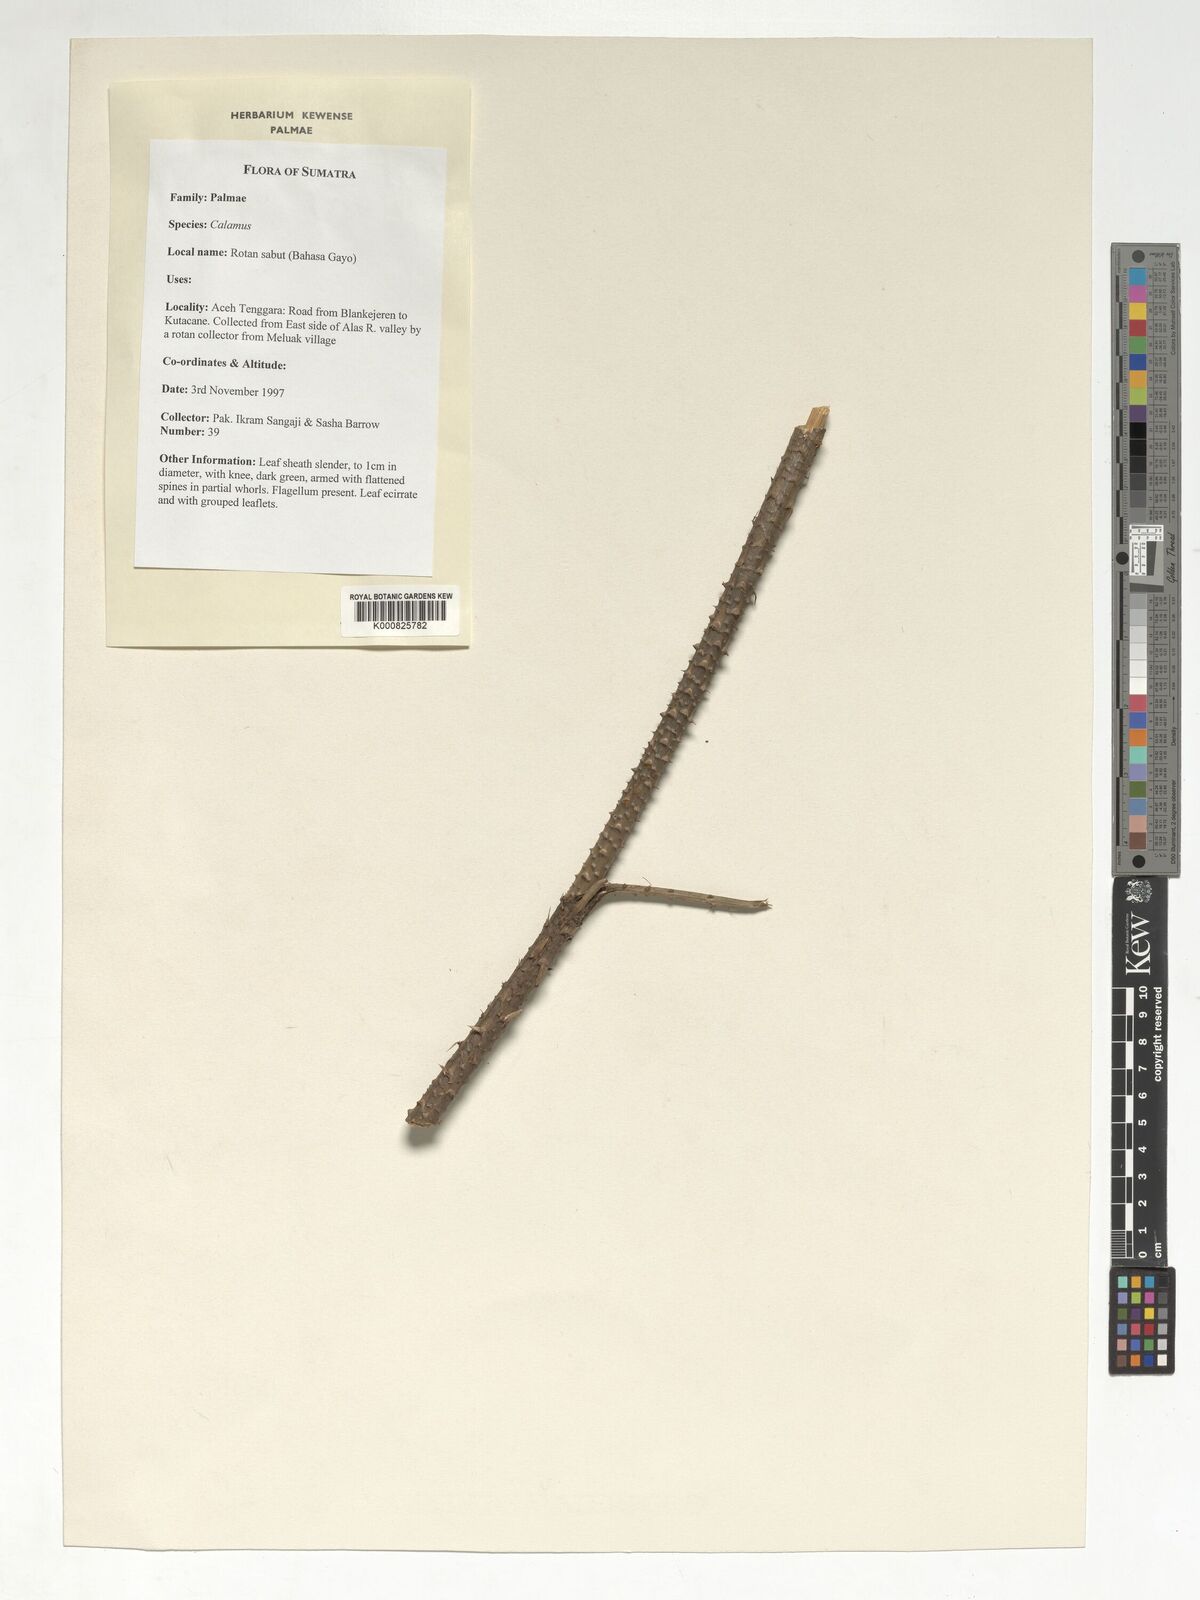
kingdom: Plantae
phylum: Tracheophyta
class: Liliopsida
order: Arecales
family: Arecaceae
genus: Calamus
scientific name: Calamus
